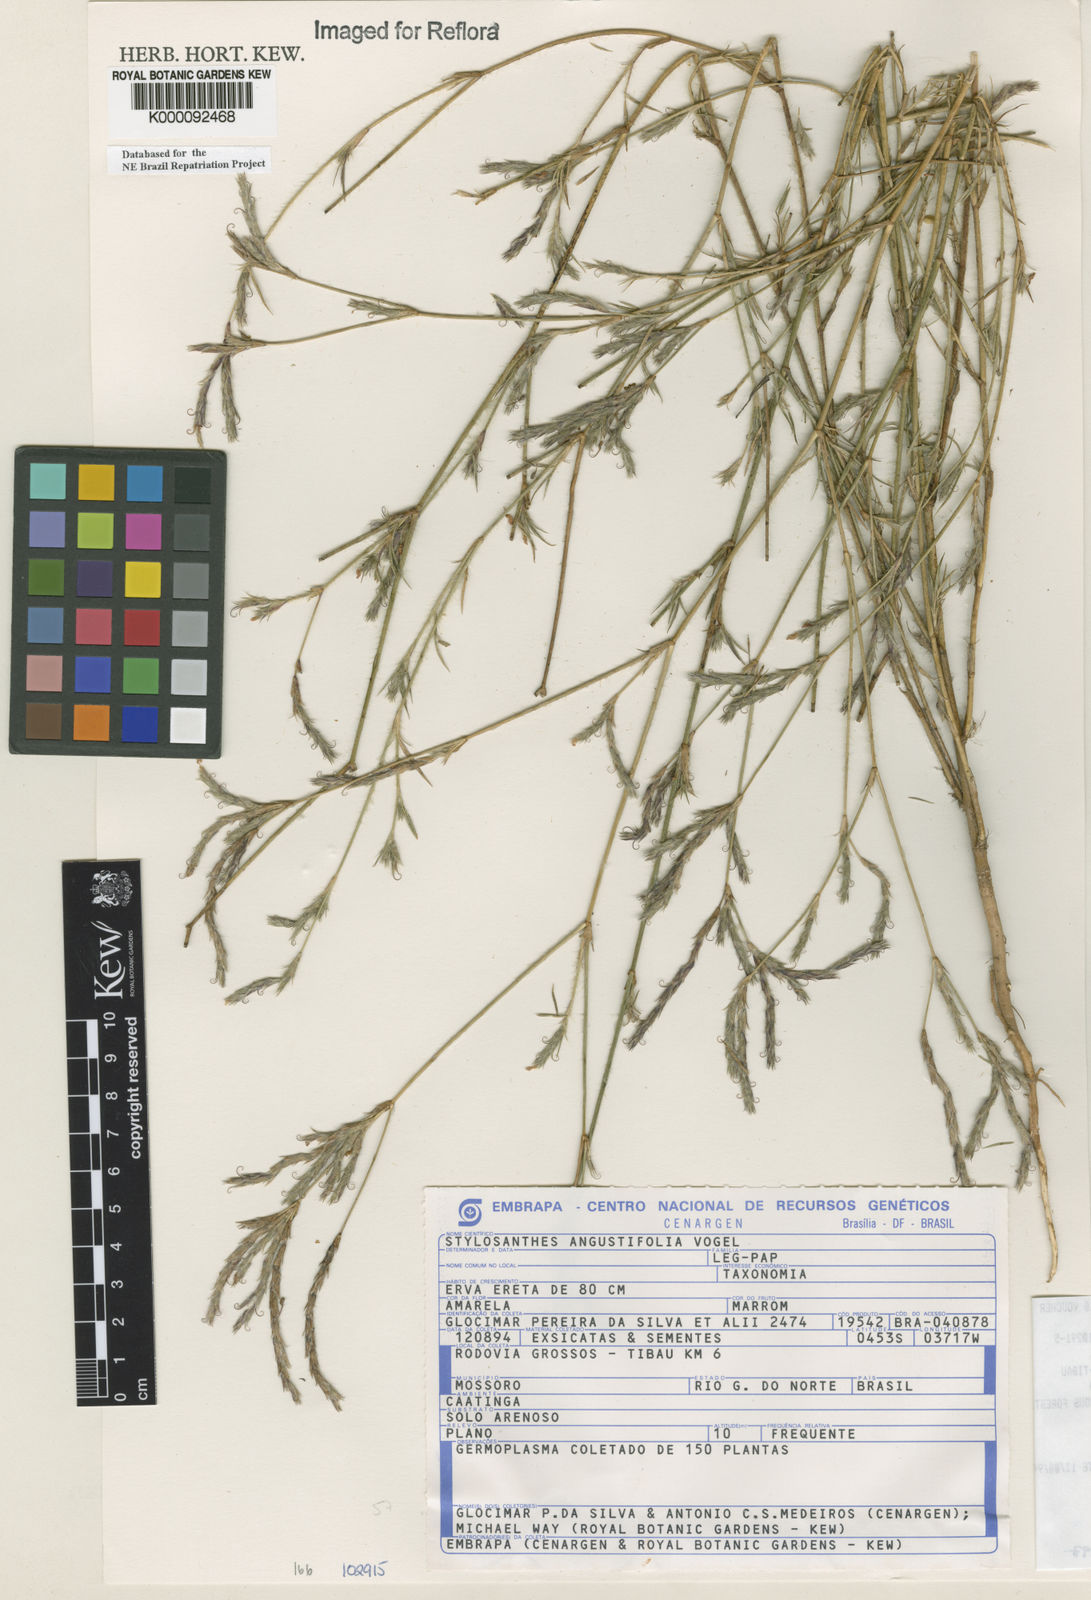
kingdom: Plantae
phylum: Tracheophyta
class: Magnoliopsida
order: Fabales
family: Fabaceae
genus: Stylosanthes
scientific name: Stylosanthes angustifolia
